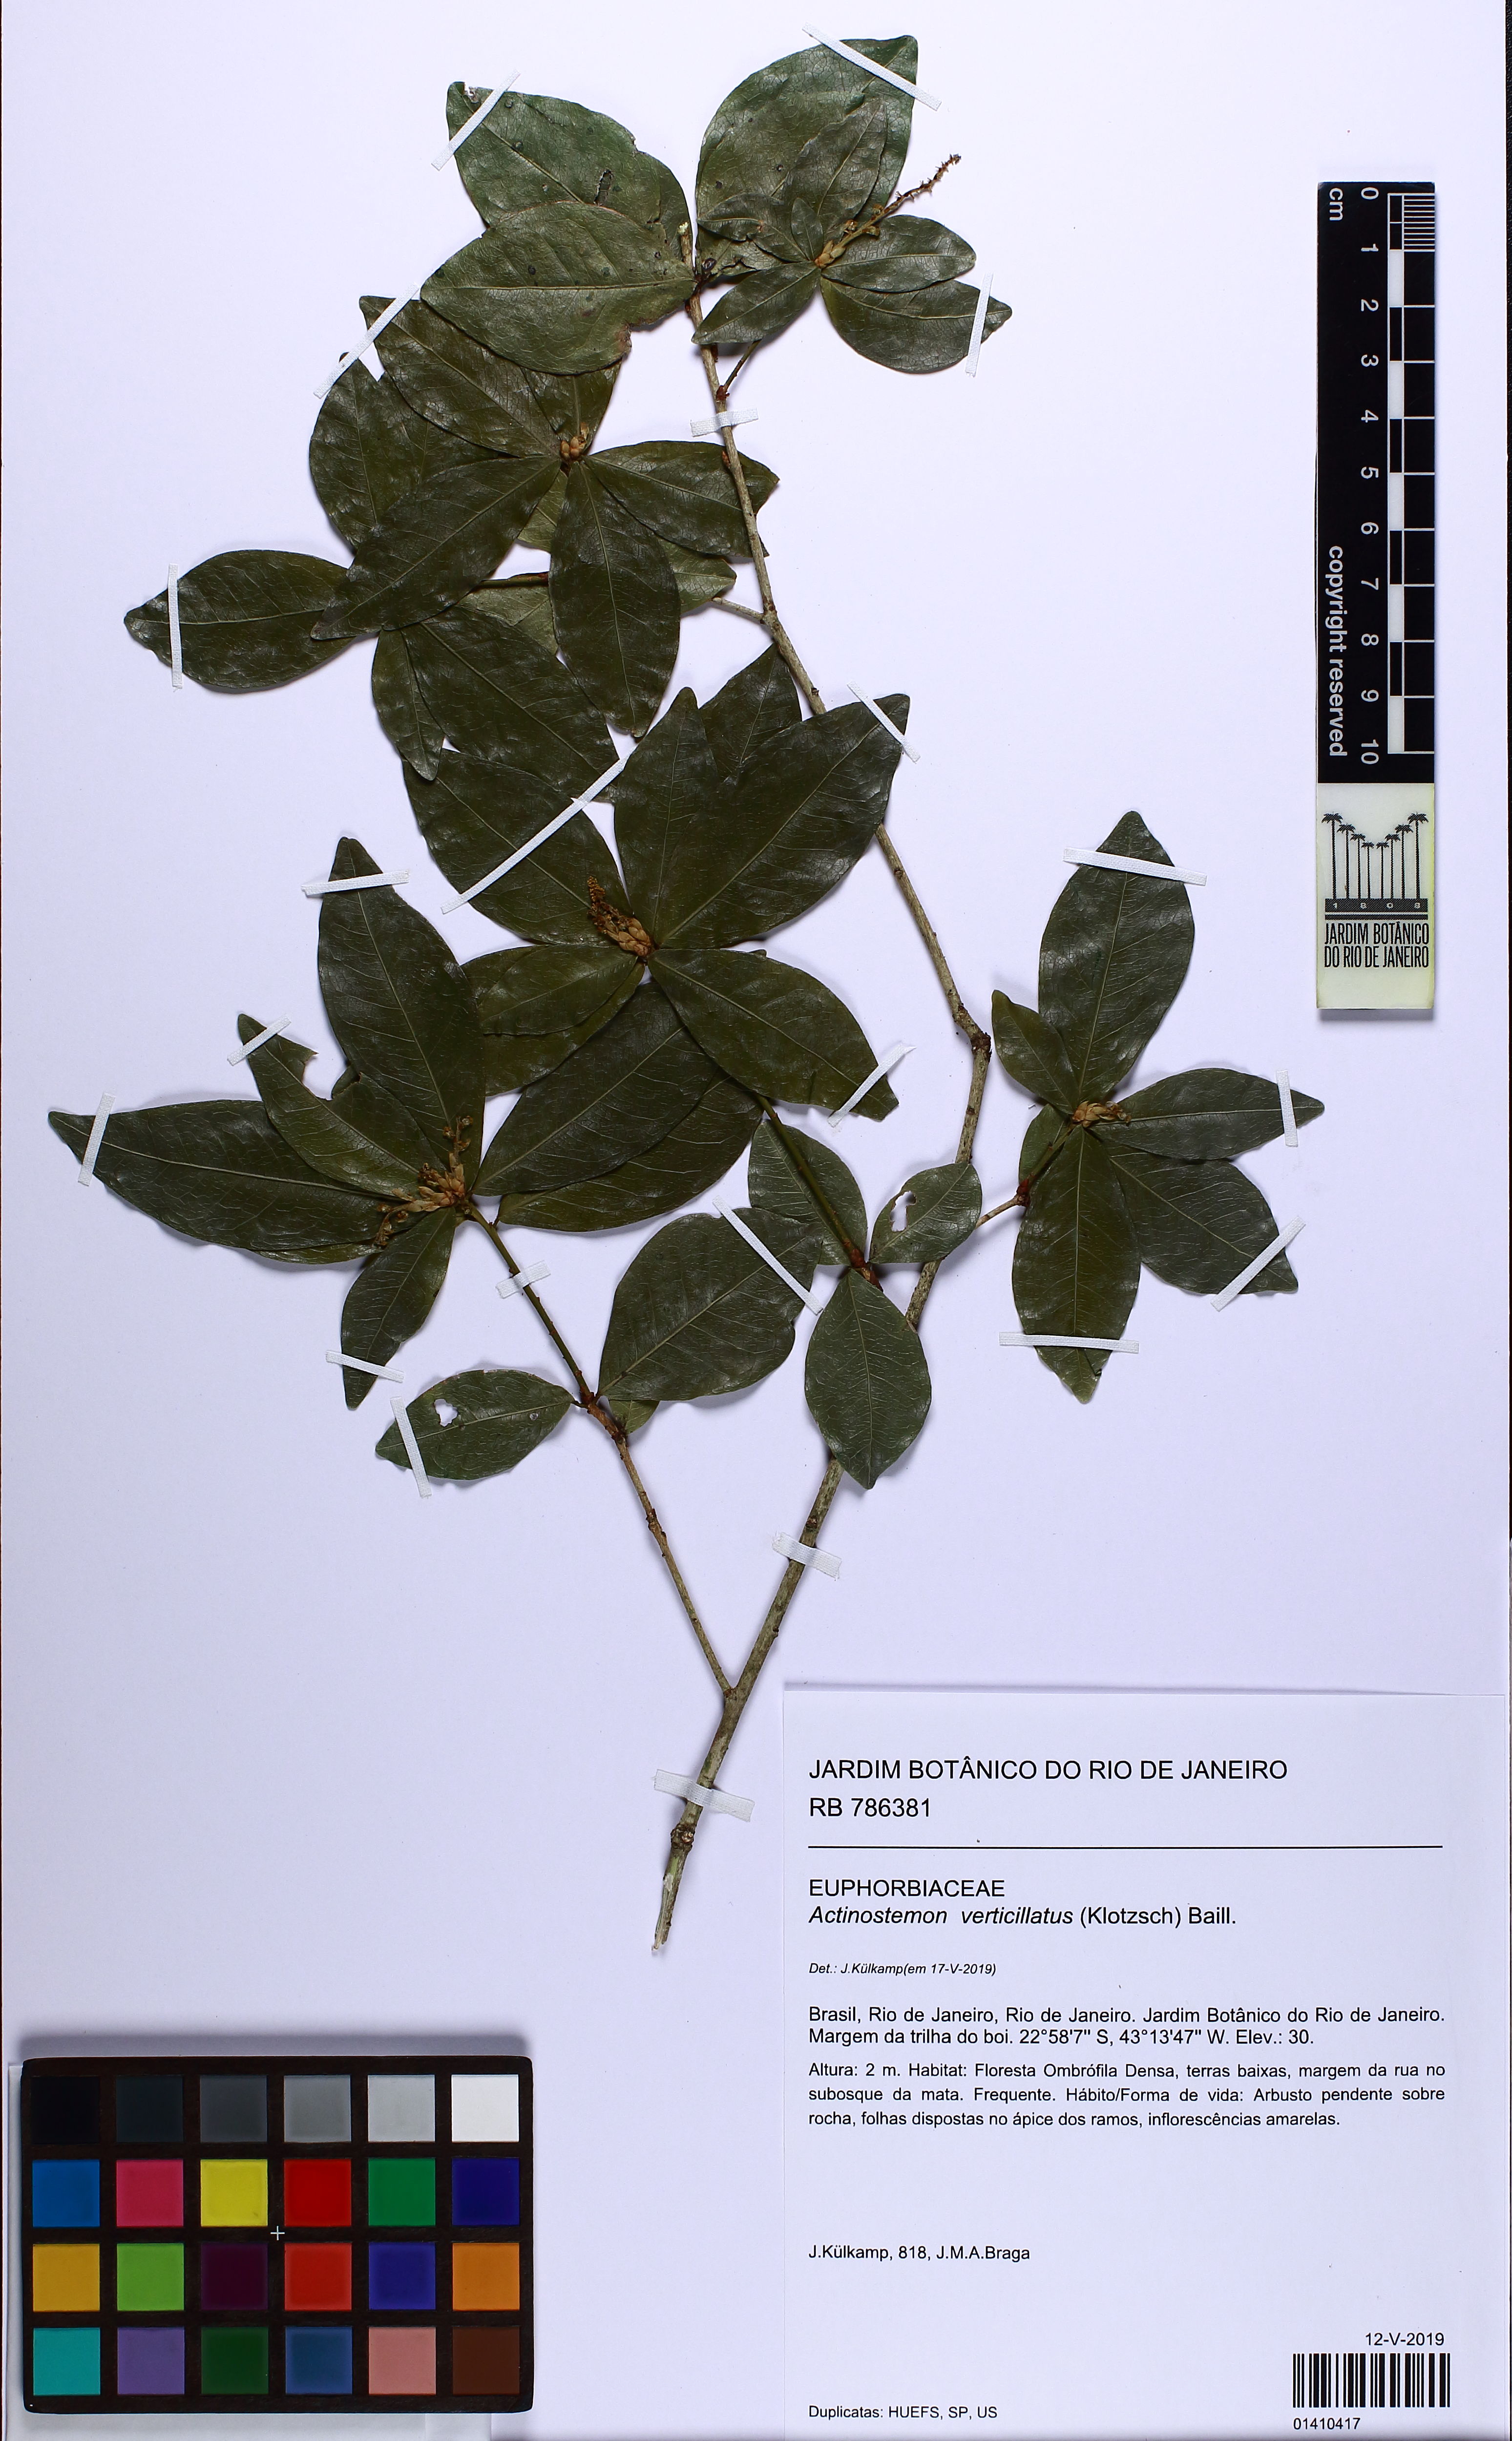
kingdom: Plantae
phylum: Tracheophyta
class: Magnoliopsida
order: Malpighiales
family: Euphorbiaceae
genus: Actinostemon
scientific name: Actinostemon verticillatus
